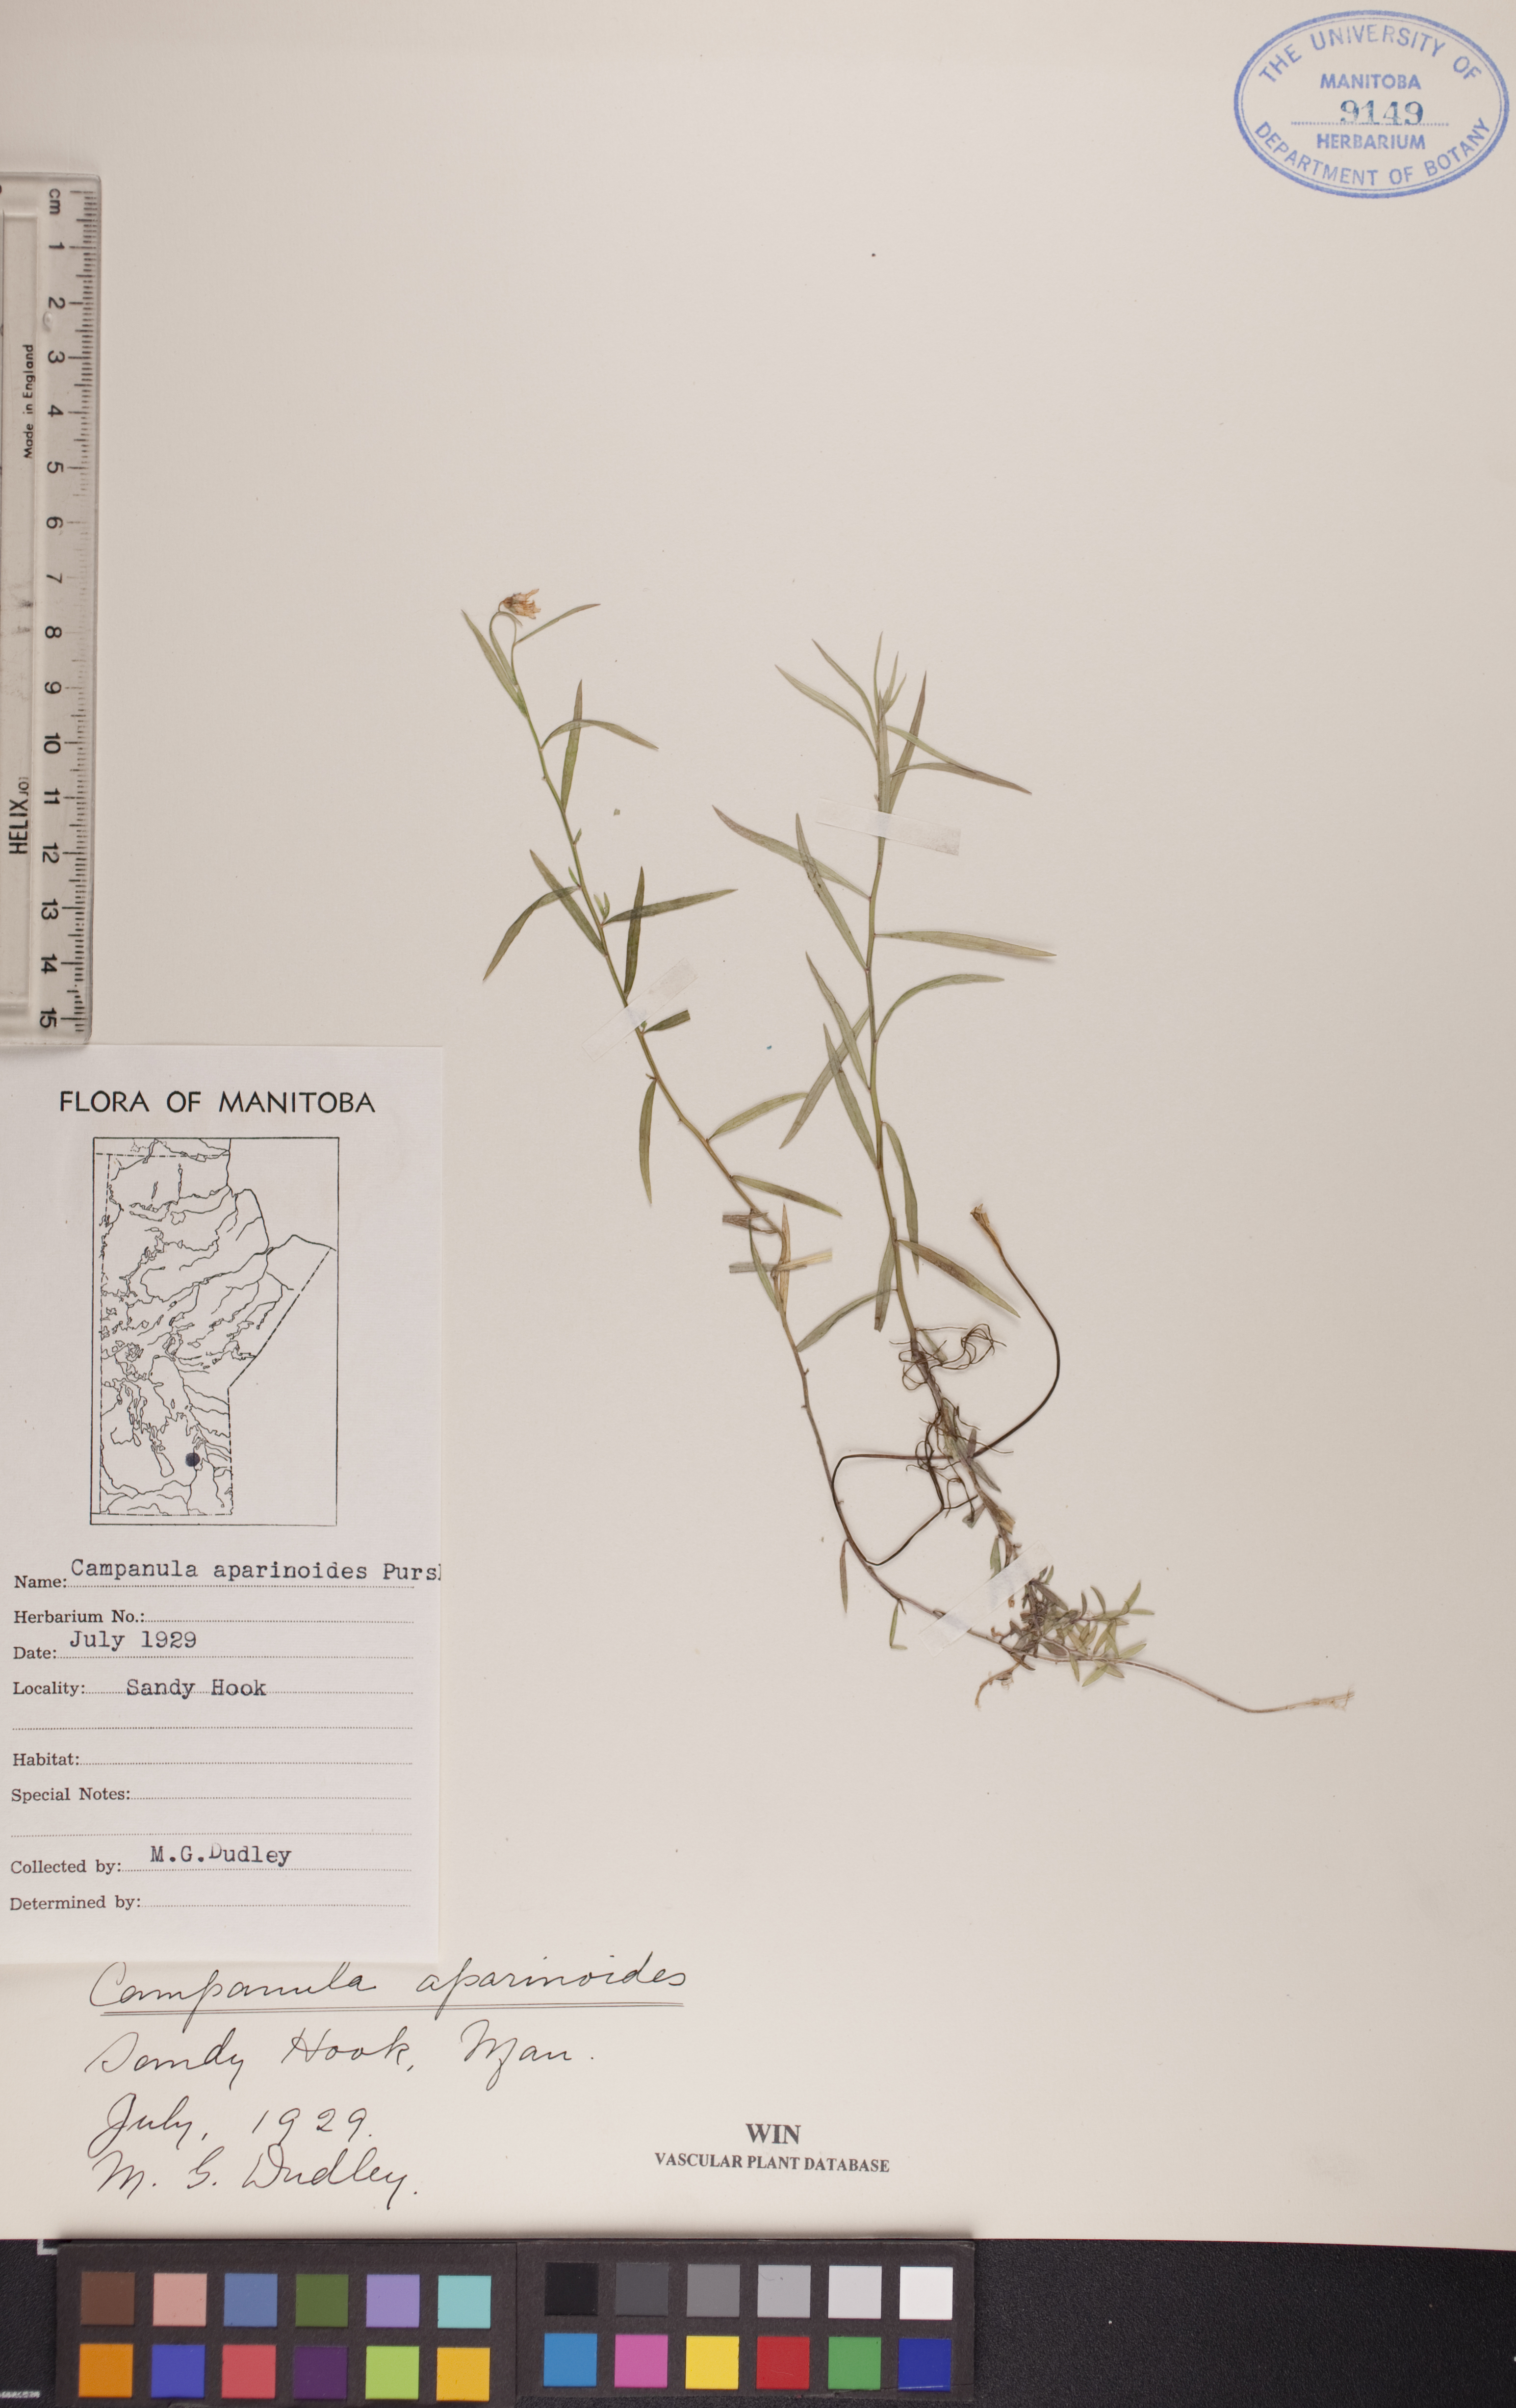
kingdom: Plantae
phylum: Tracheophyta
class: Magnoliopsida
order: Asterales
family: Campanulaceae
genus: Palustricodon
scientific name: Palustricodon aparinoides
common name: Bedstraw bellflower
